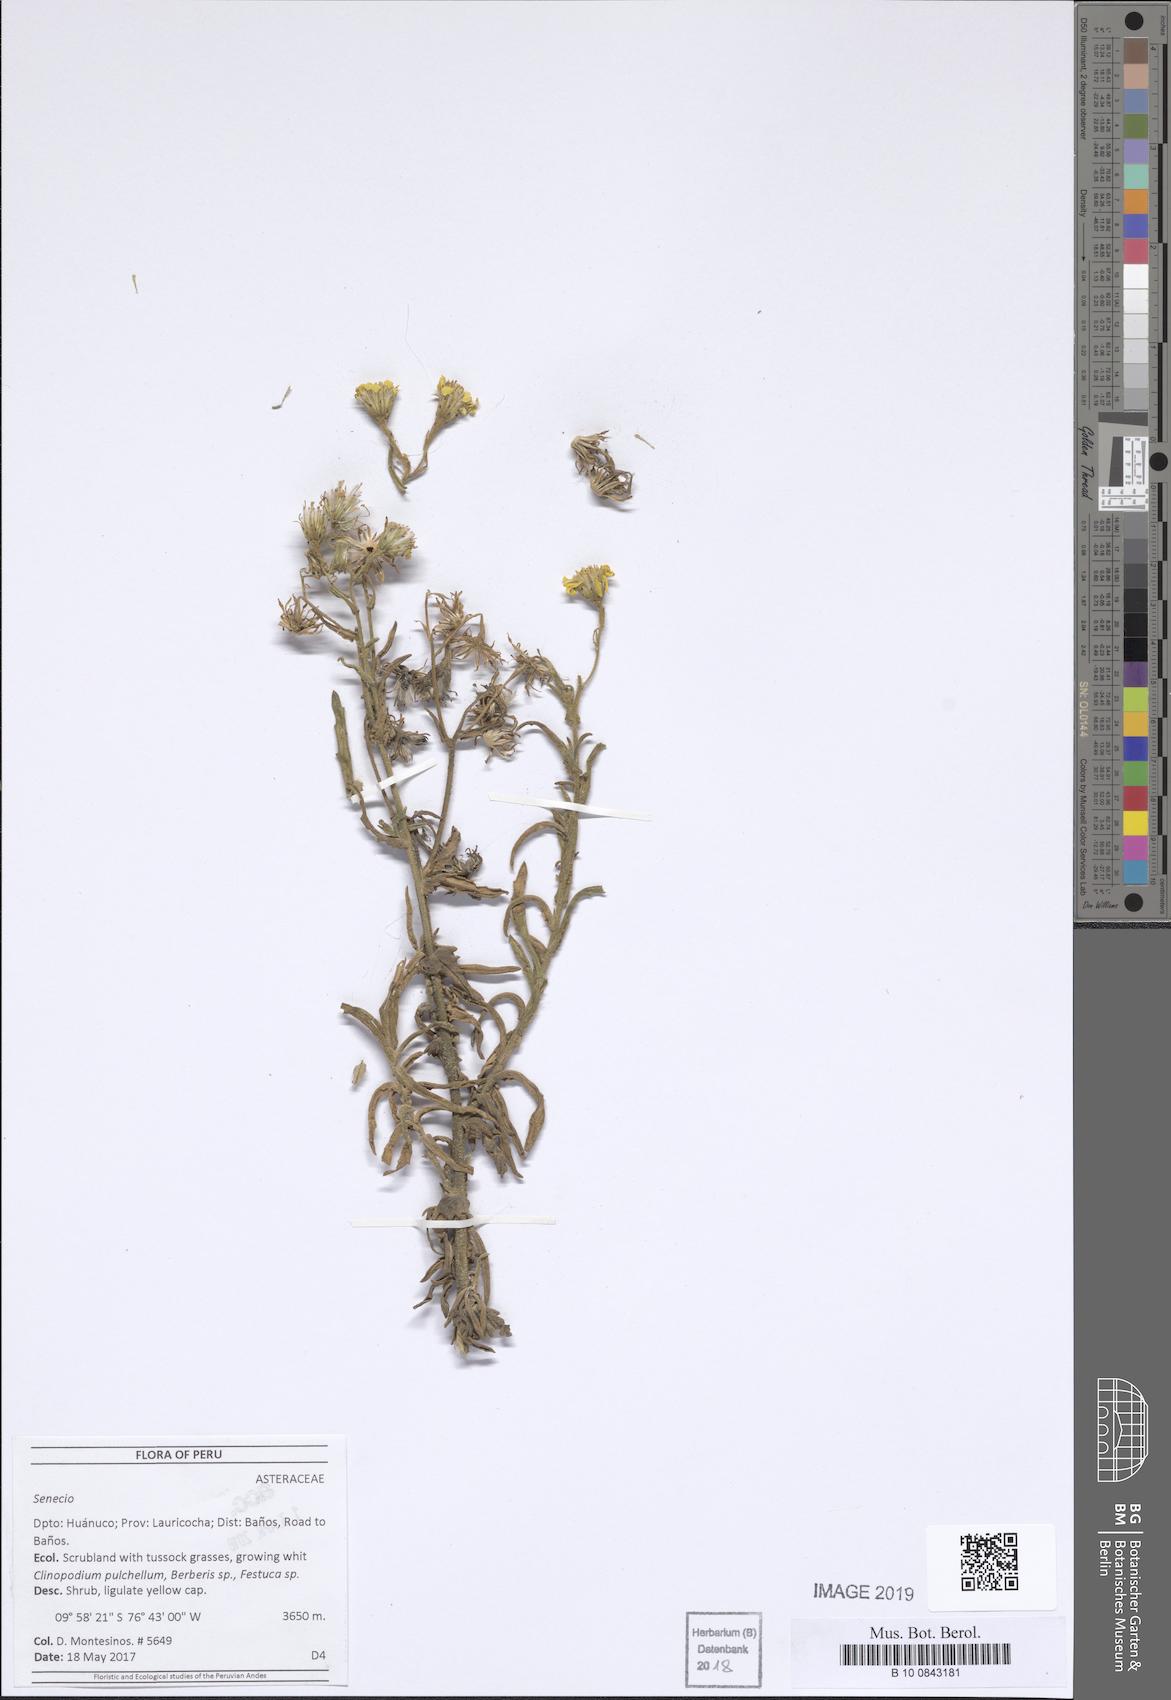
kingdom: Plantae
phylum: Tracheophyta
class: Magnoliopsida
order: Asterales
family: Asteraceae
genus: Senecio
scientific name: Senecio chiquianensis
